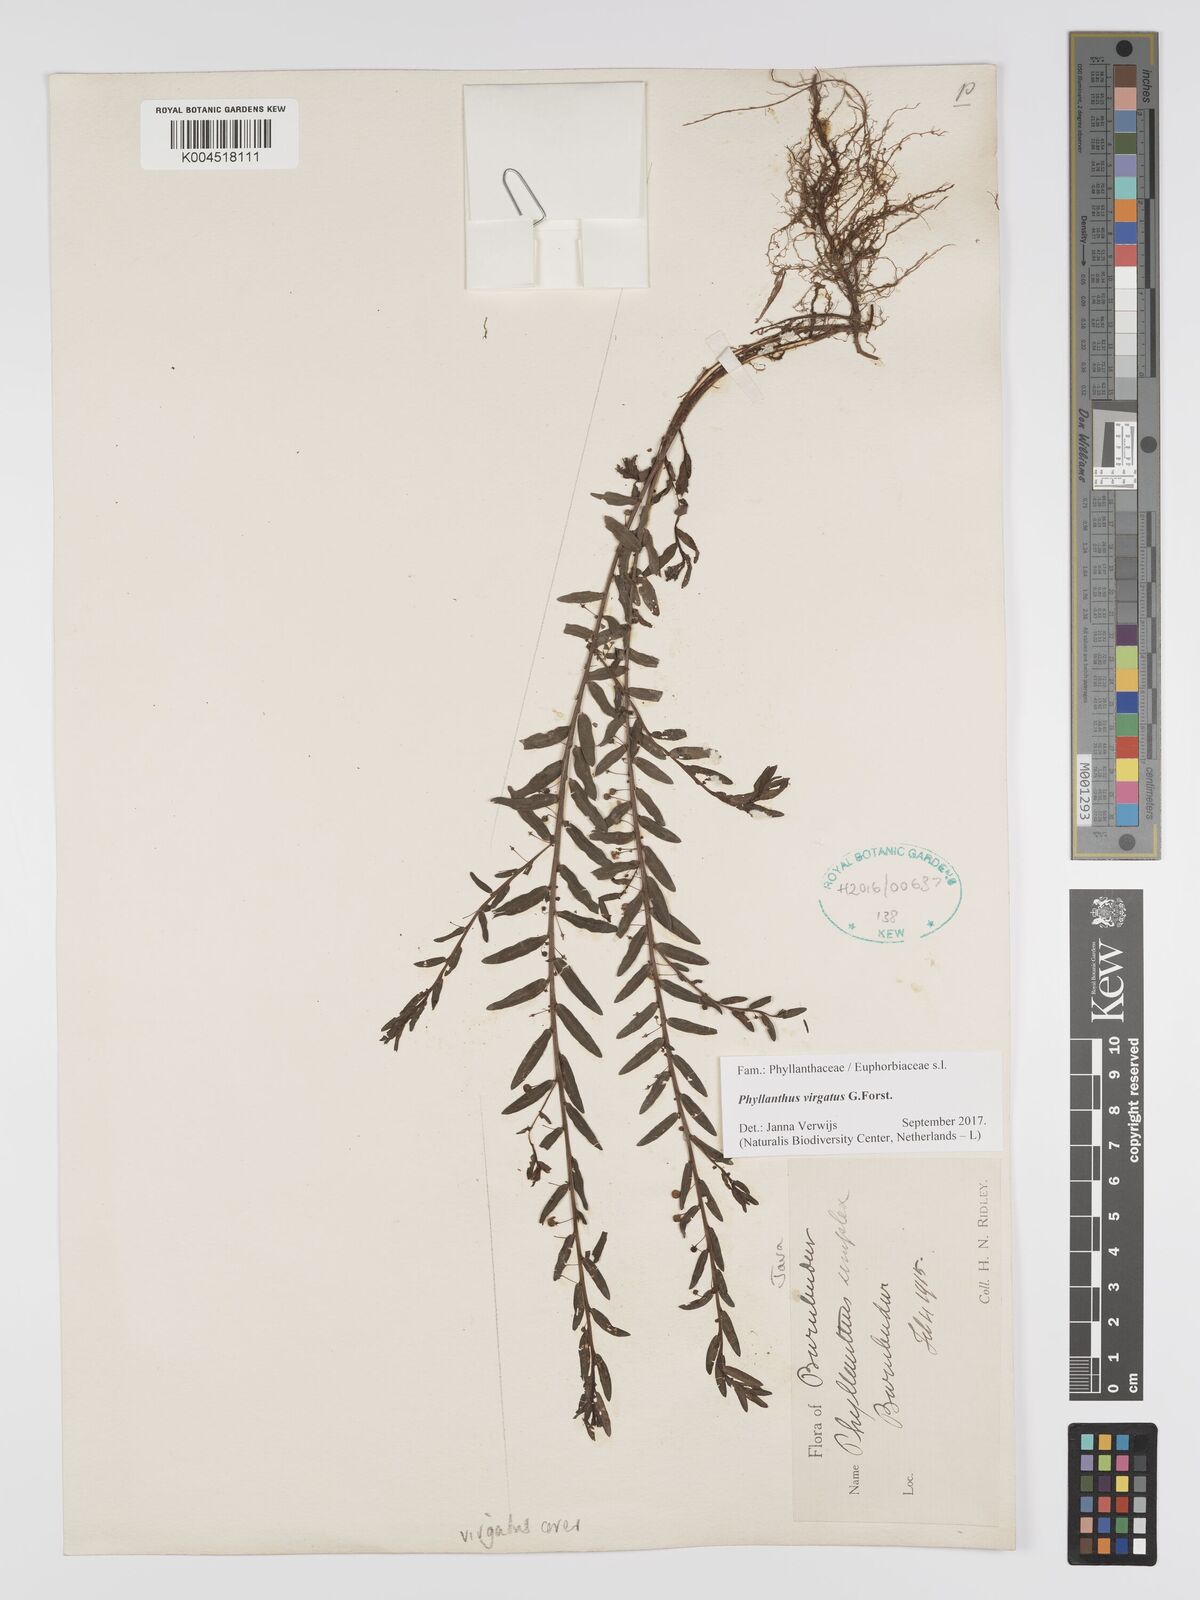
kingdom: Plantae
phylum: Tracheophyta
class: Magnoliopsida
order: Malpighiales
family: Phyllanthaceae
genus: Phyllanthus
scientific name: Phyllanthus virgatus
